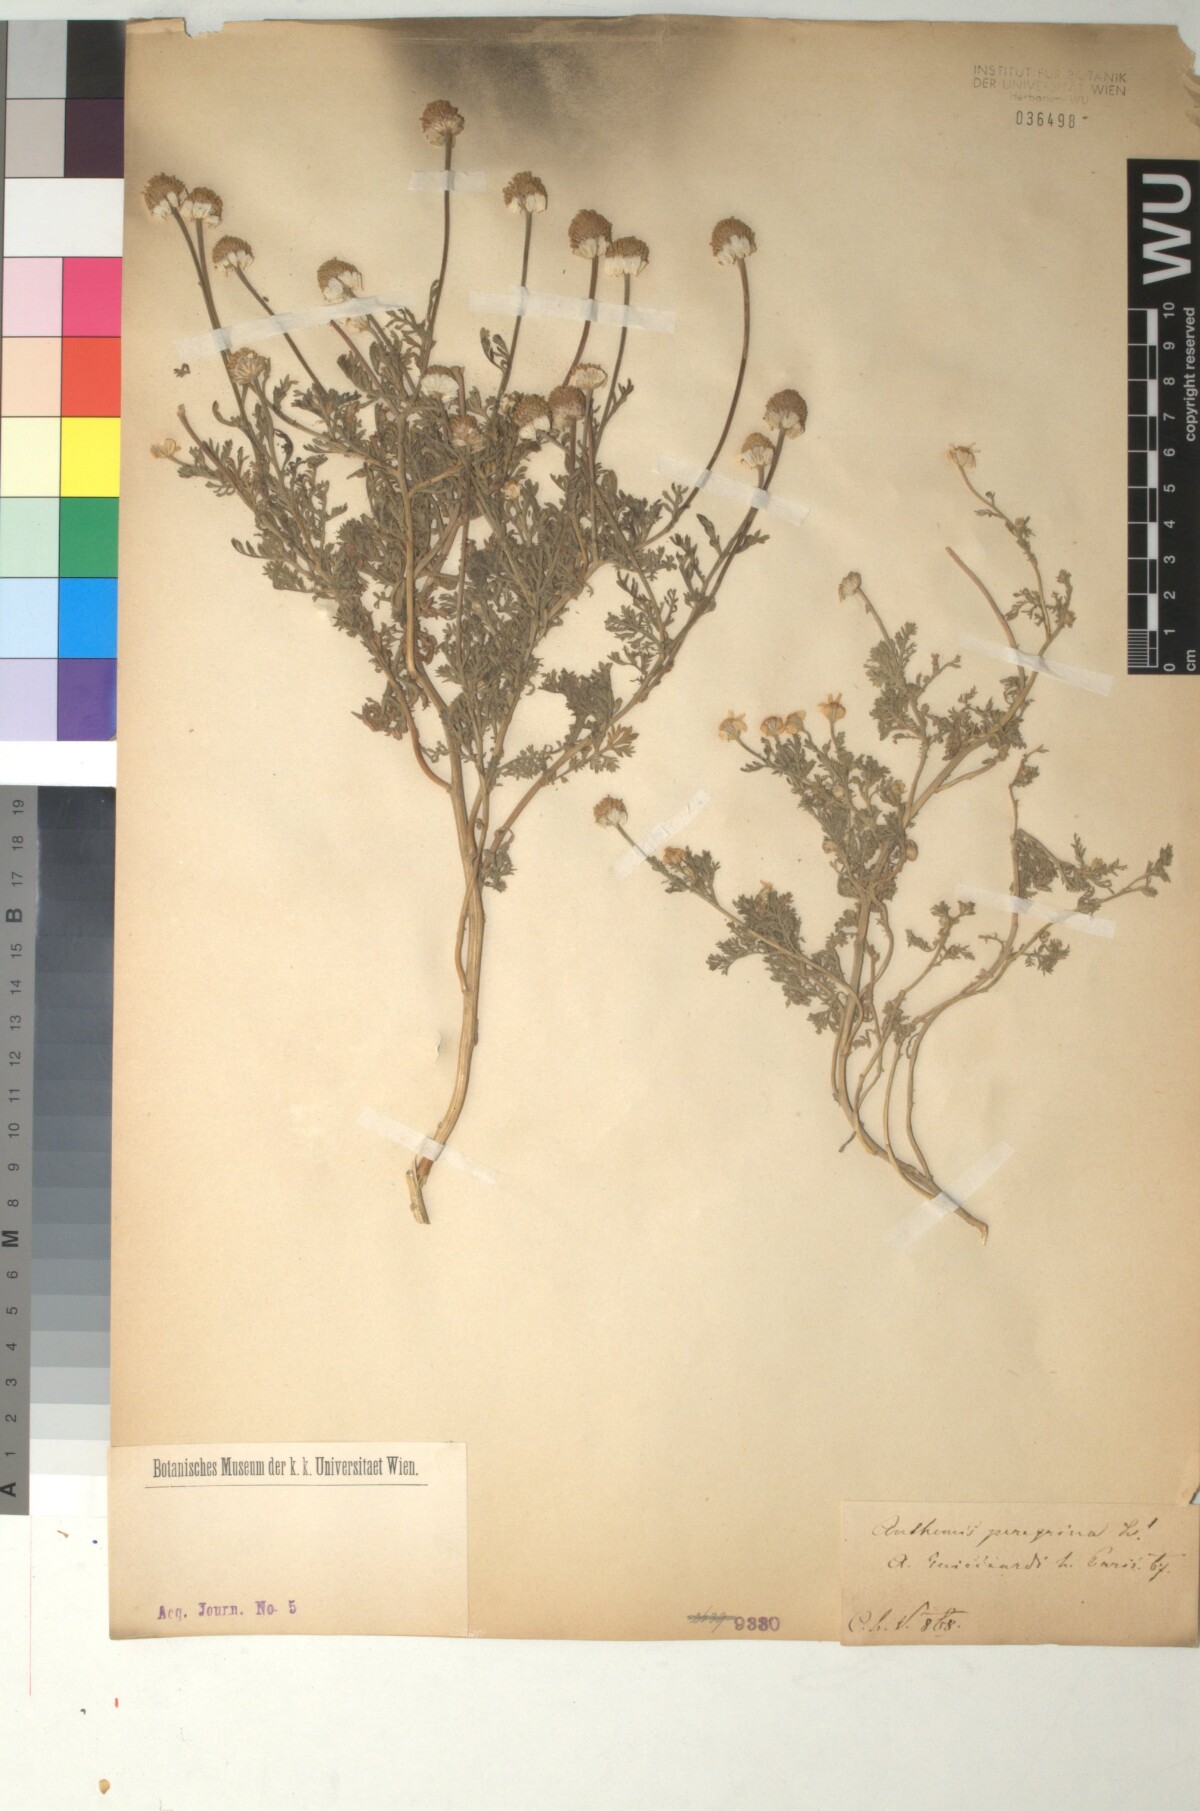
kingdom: Plantae
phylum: Tracheophyta
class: Magnoliopsida
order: Asterales
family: Asteraceae
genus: Anthemis
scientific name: Anthemis tomentosa
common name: Woolly chamomile
